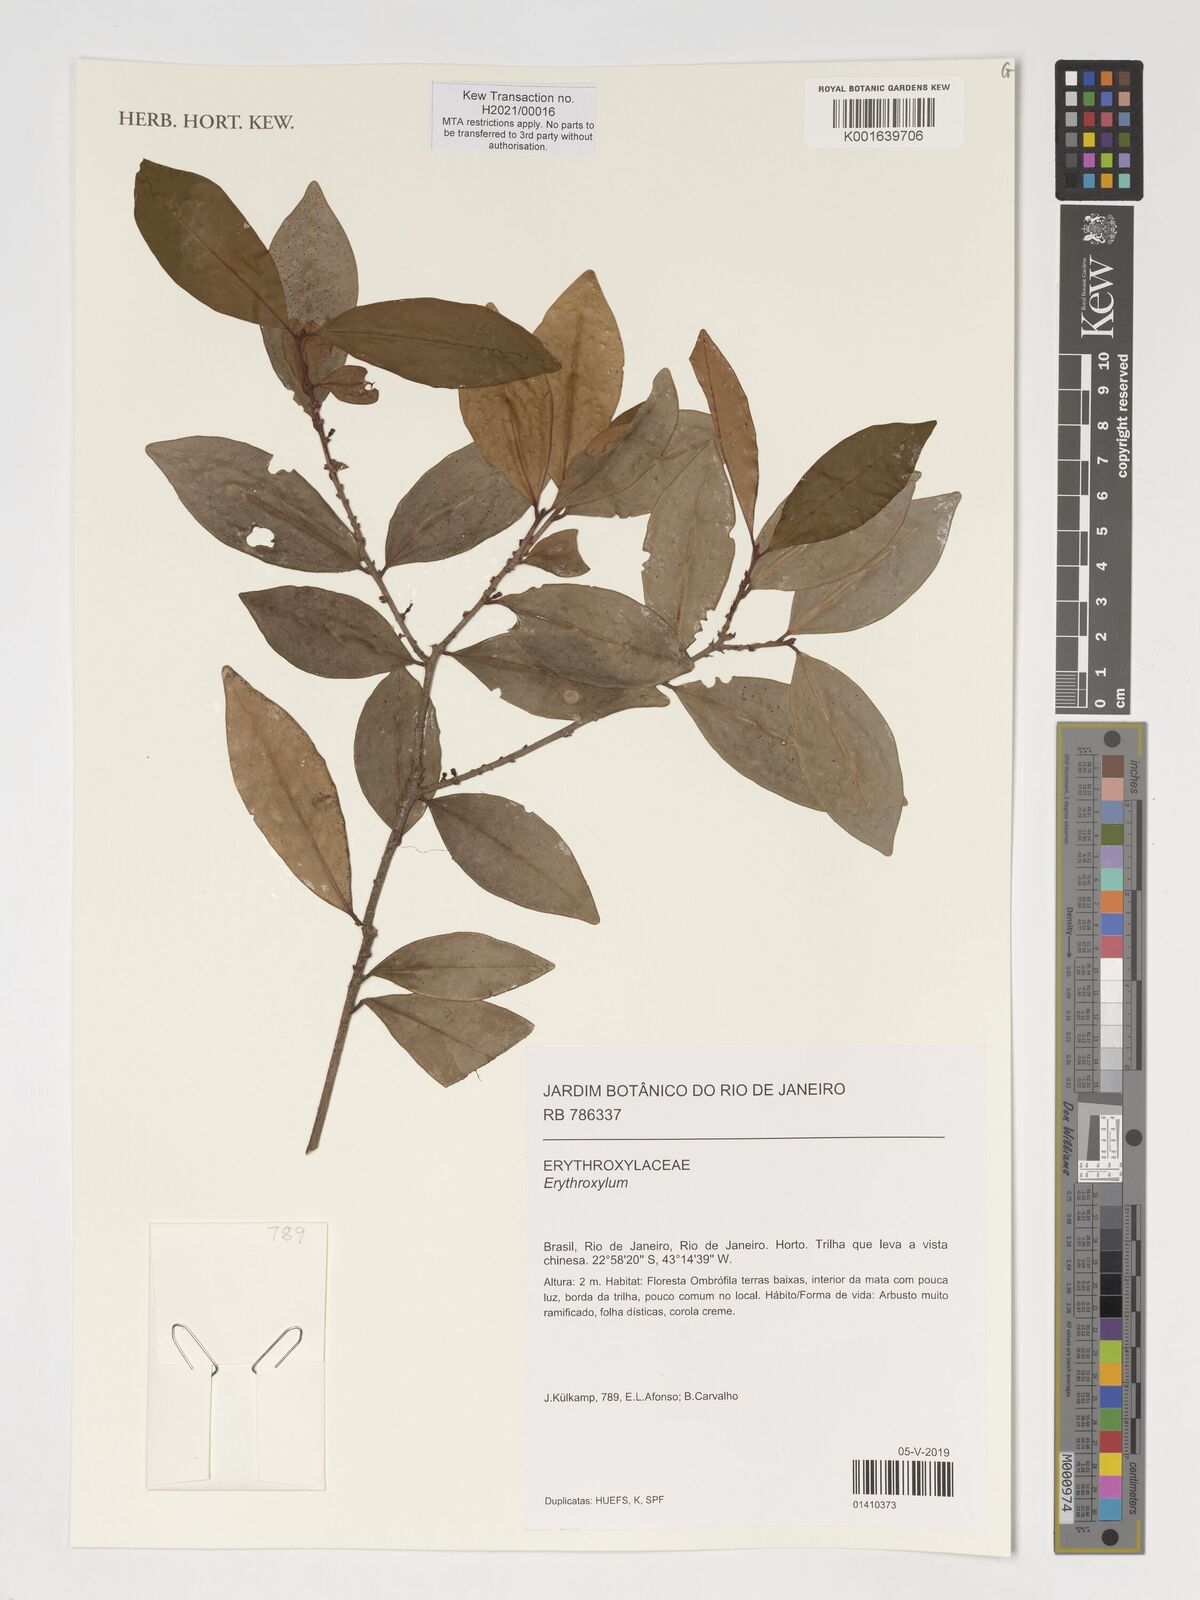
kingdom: Plantae
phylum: Tracheophyta
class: Magnoliopsida
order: Malpighiales
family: Erythroxylaceae
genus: Erythroxylum
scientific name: Erythroxylum
